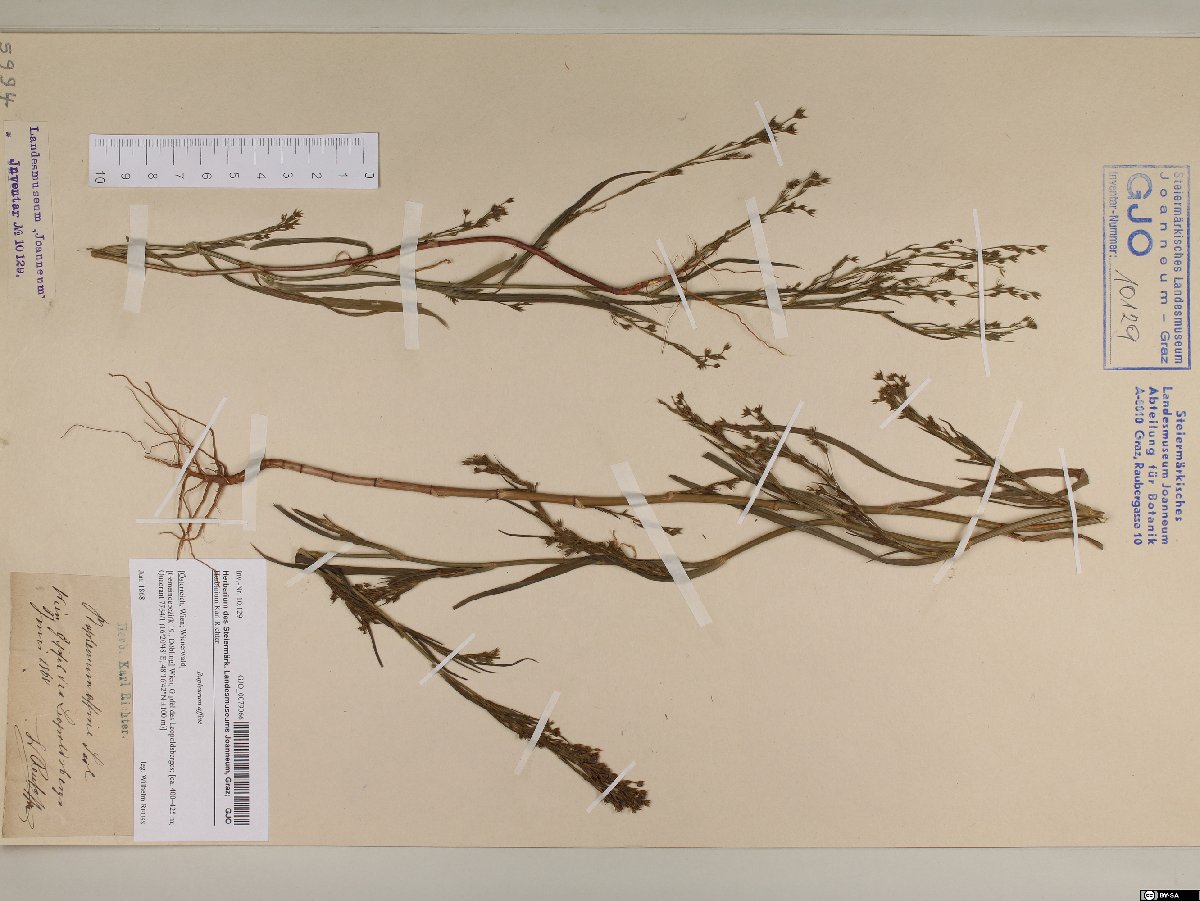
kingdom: Plantae
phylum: Tracheophyta
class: Magnoliopsida
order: Apiales
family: Apiaceae
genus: Bupleurum
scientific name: Bupleurum affine
